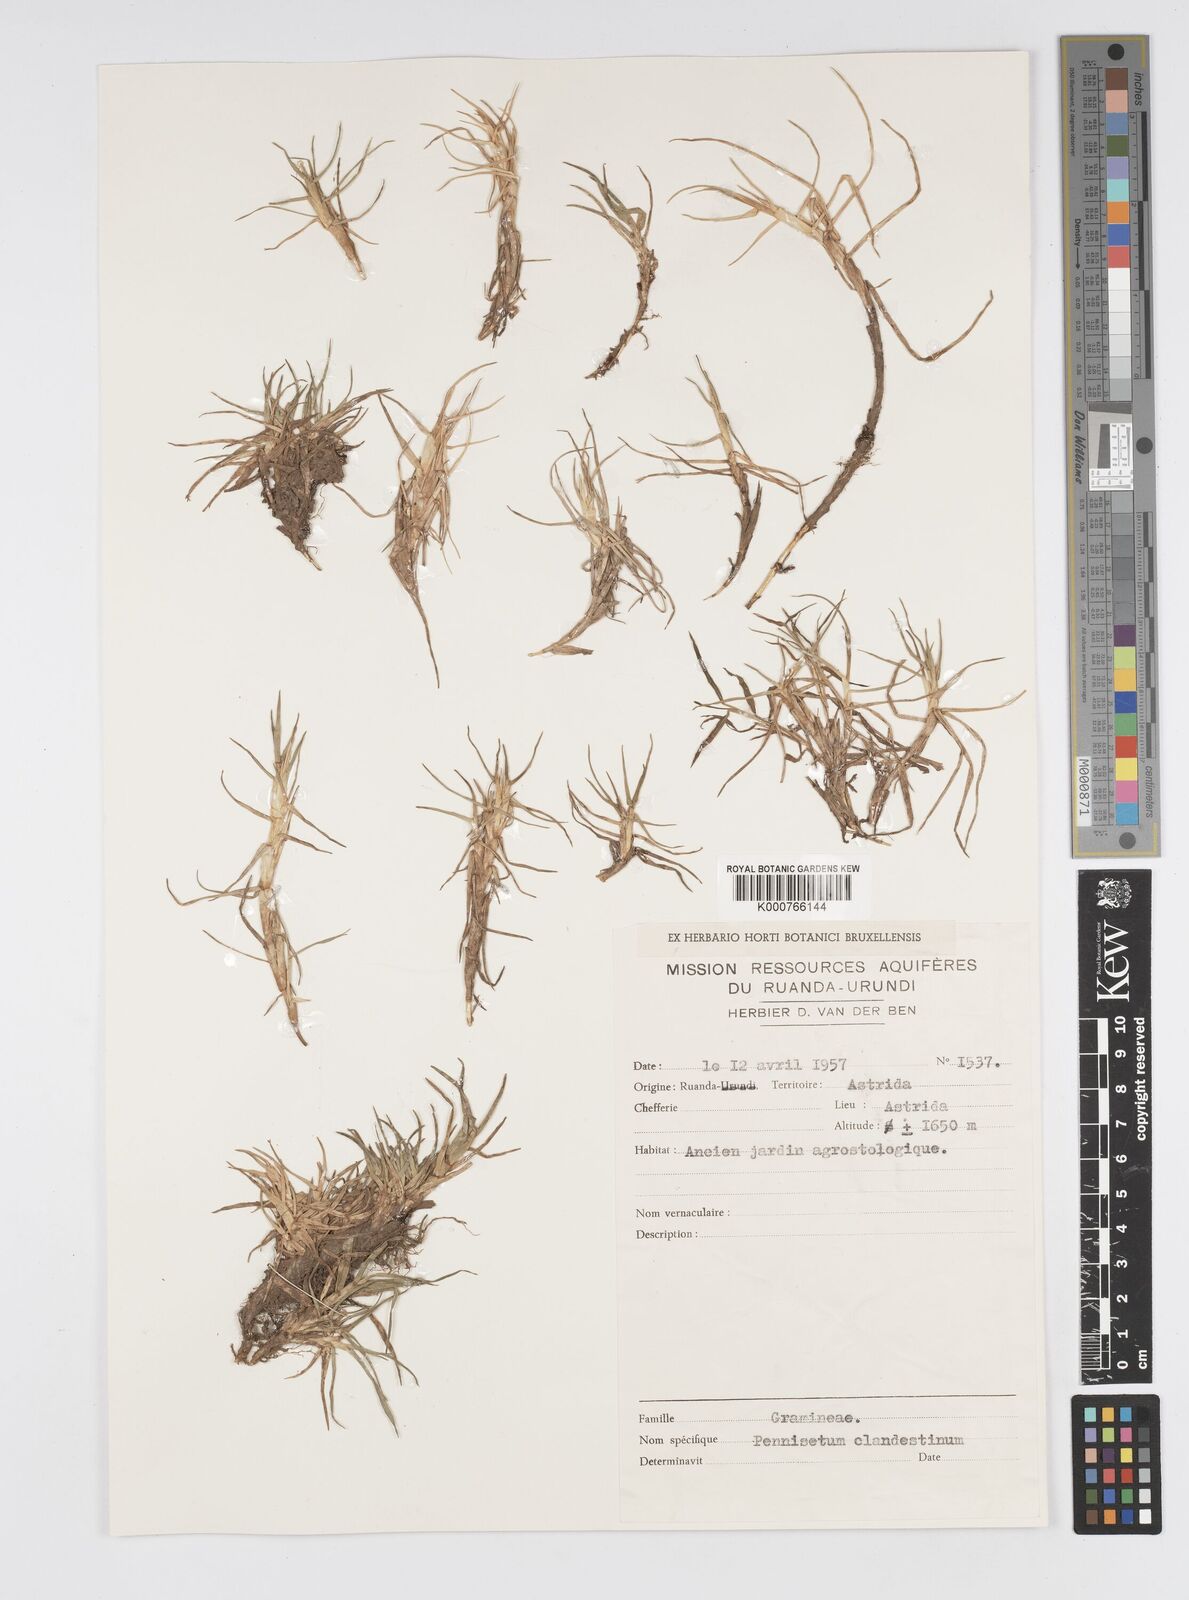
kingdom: Plantae
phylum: Tracheophyta
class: Liliopsida
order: Poales
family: Poaceae
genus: Cenchrus
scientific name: Cenchrus clandestinus
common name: Kikuyugrass
